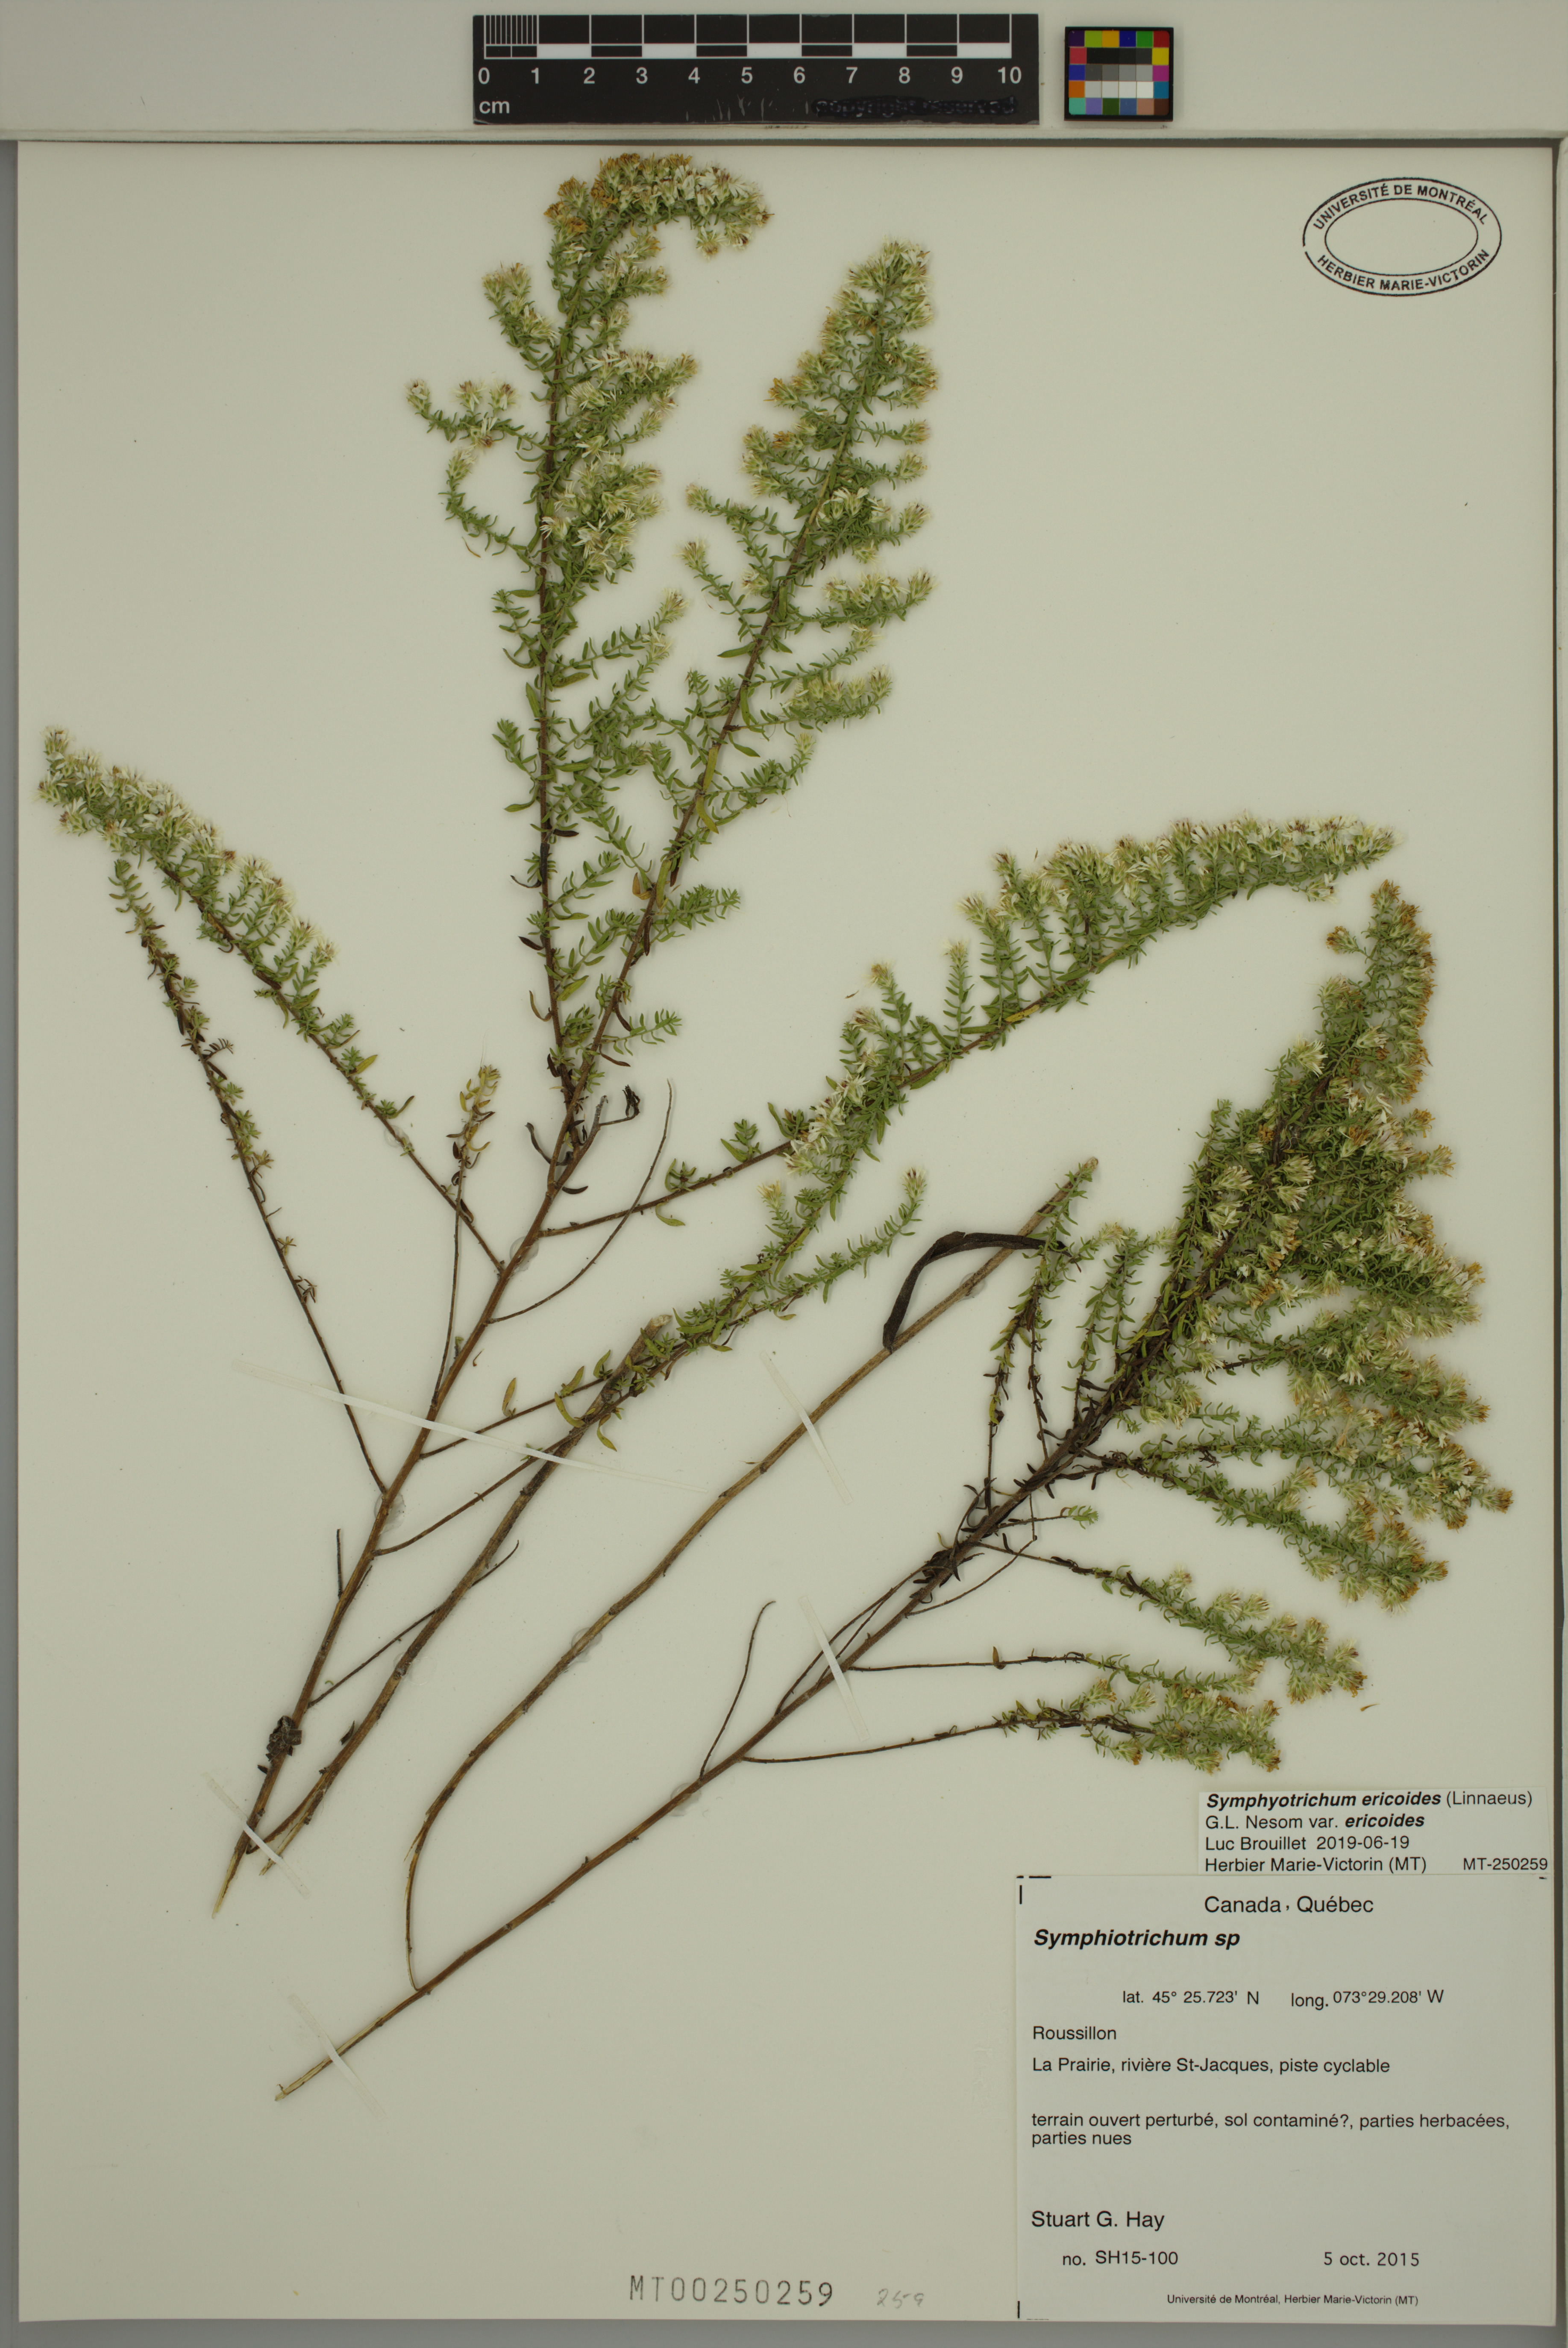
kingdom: Plantae
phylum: Tracheophyta
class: Magnoliopsida
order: Asterales
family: Asteraceae
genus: Symphyotrichum
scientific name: Symphyotrichum ericoides
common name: Heath aster
